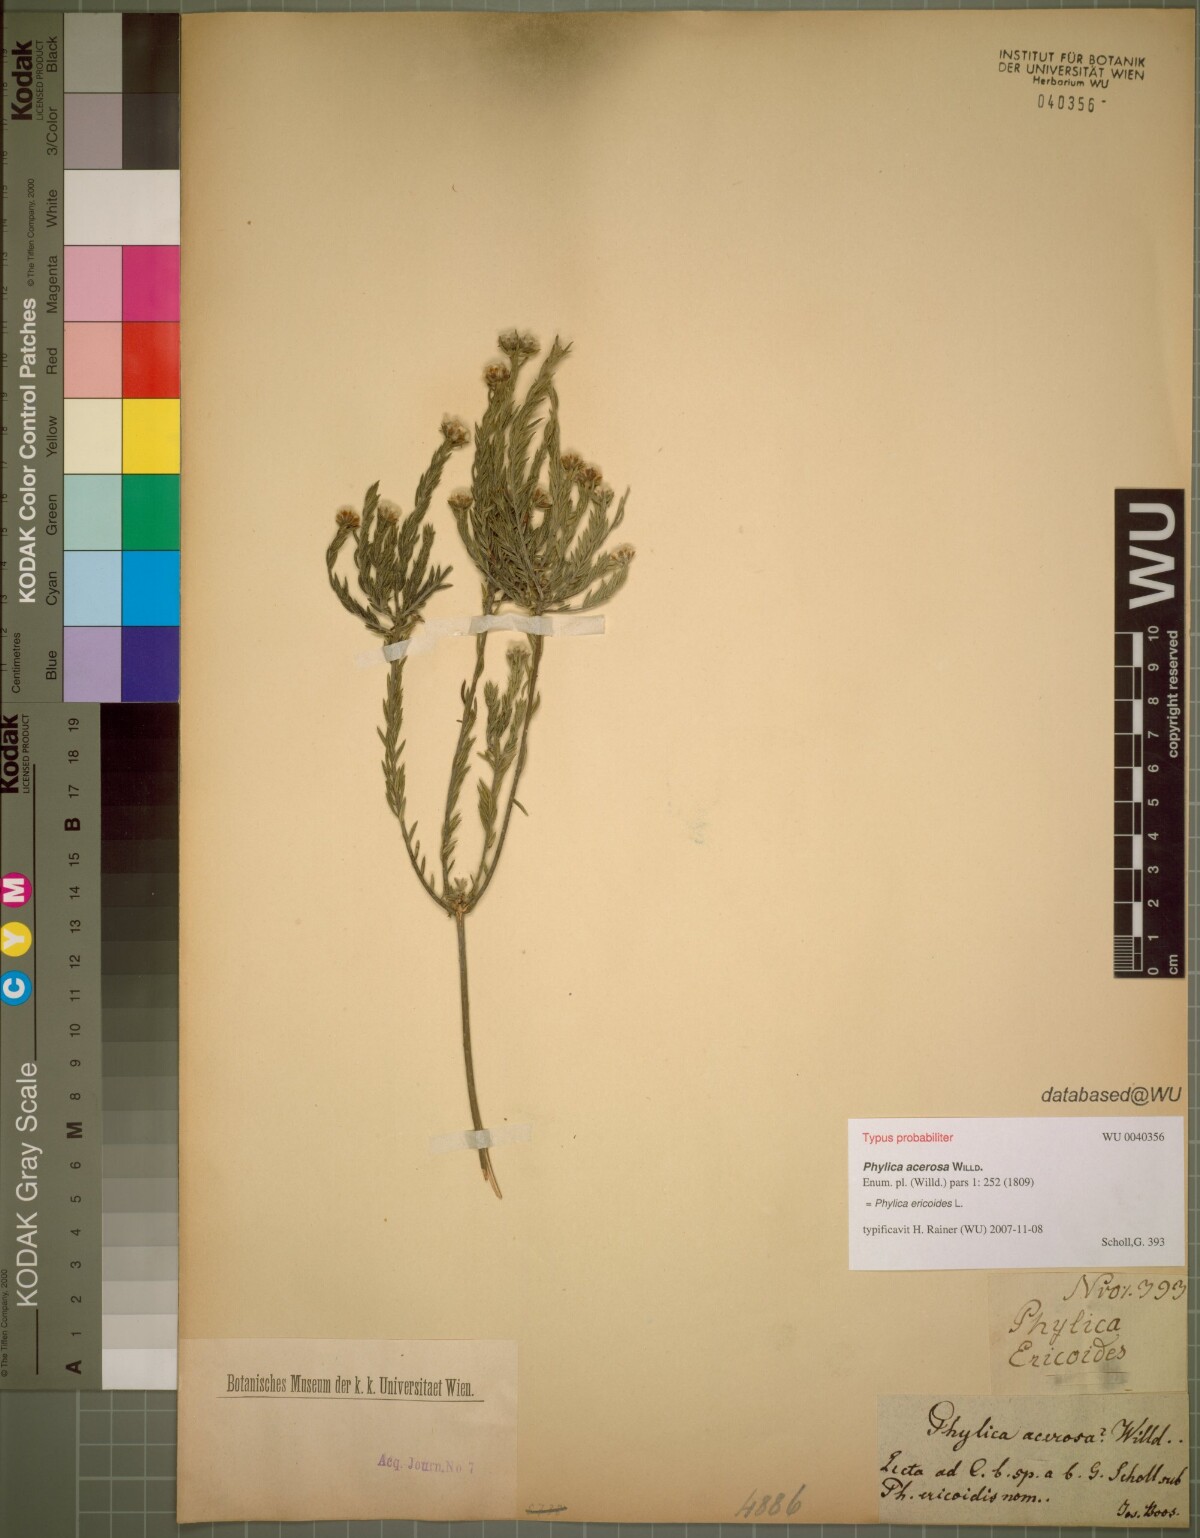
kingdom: Plantae
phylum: Tracheophyta
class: Magnoliopsida
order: Rosales
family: Rhamnaceae
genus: Phylica
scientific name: Phylica ericoides
